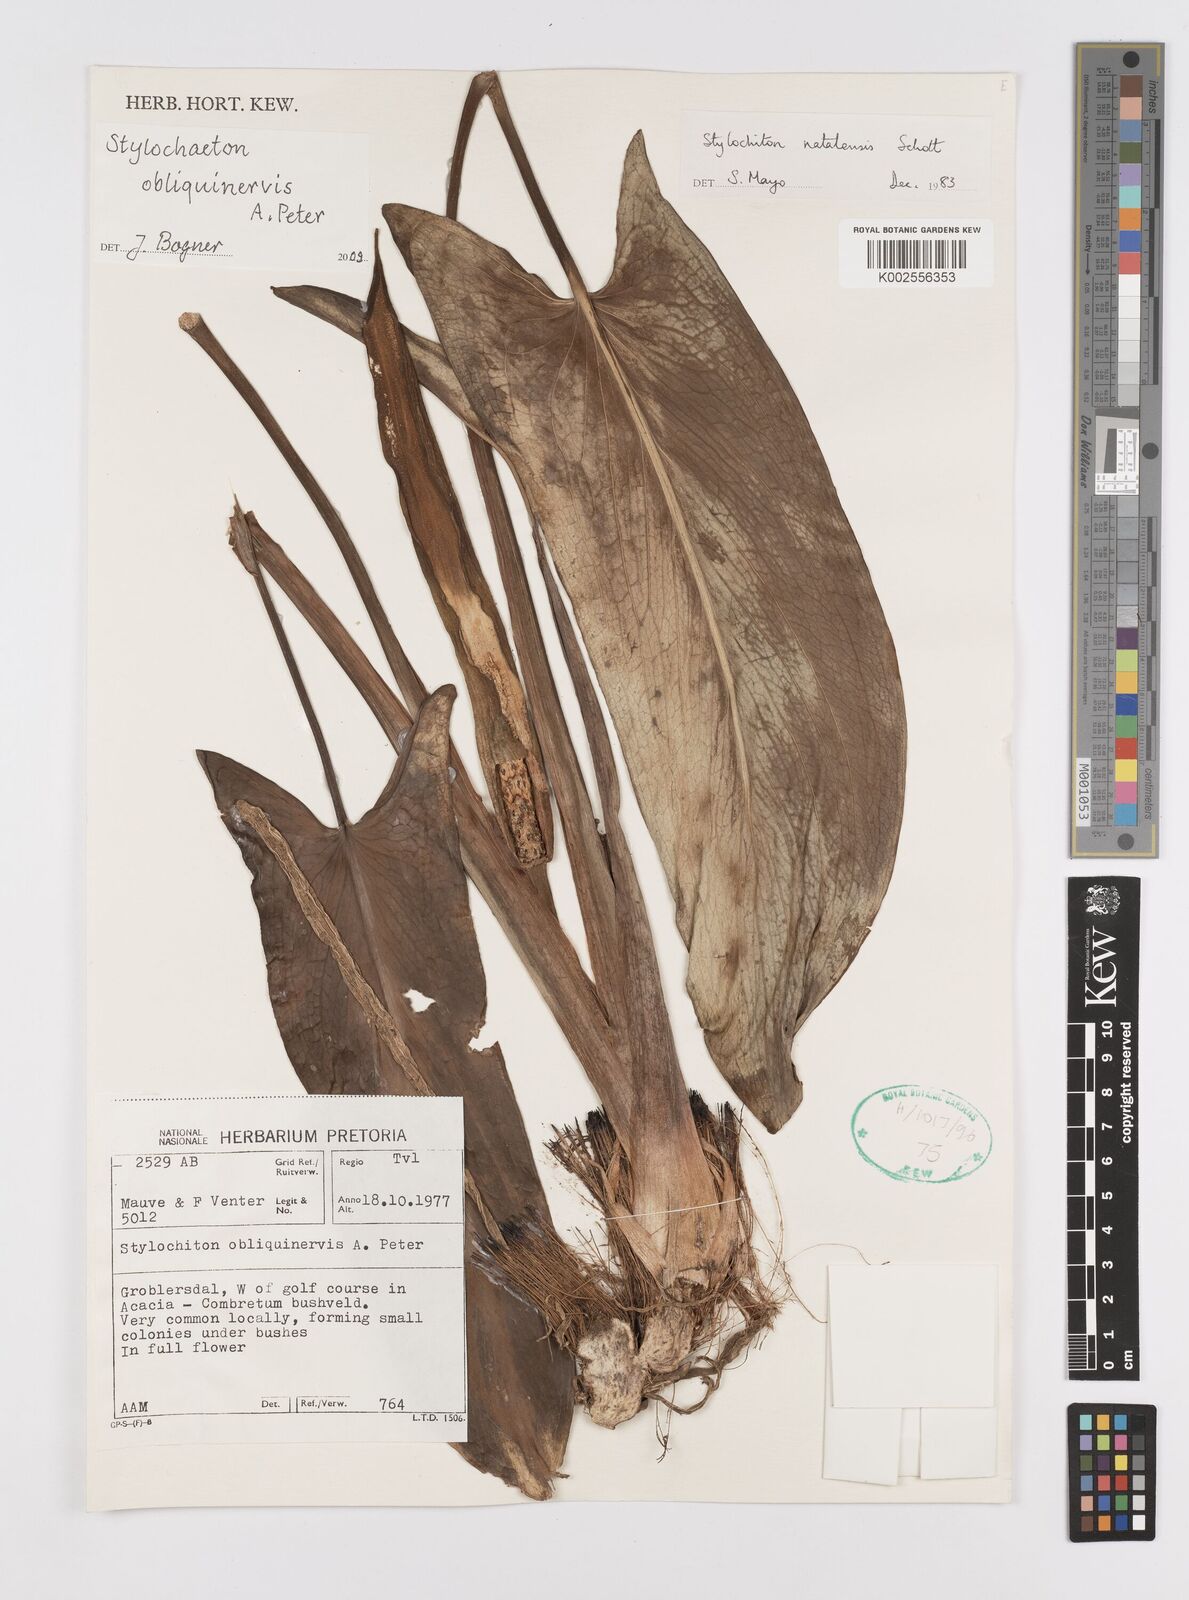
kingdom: Plantae
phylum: Tracheophyta
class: Liliopsida
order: Alismatales
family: Araceae
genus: Stylochaeton
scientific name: Stylochaeton natalense
